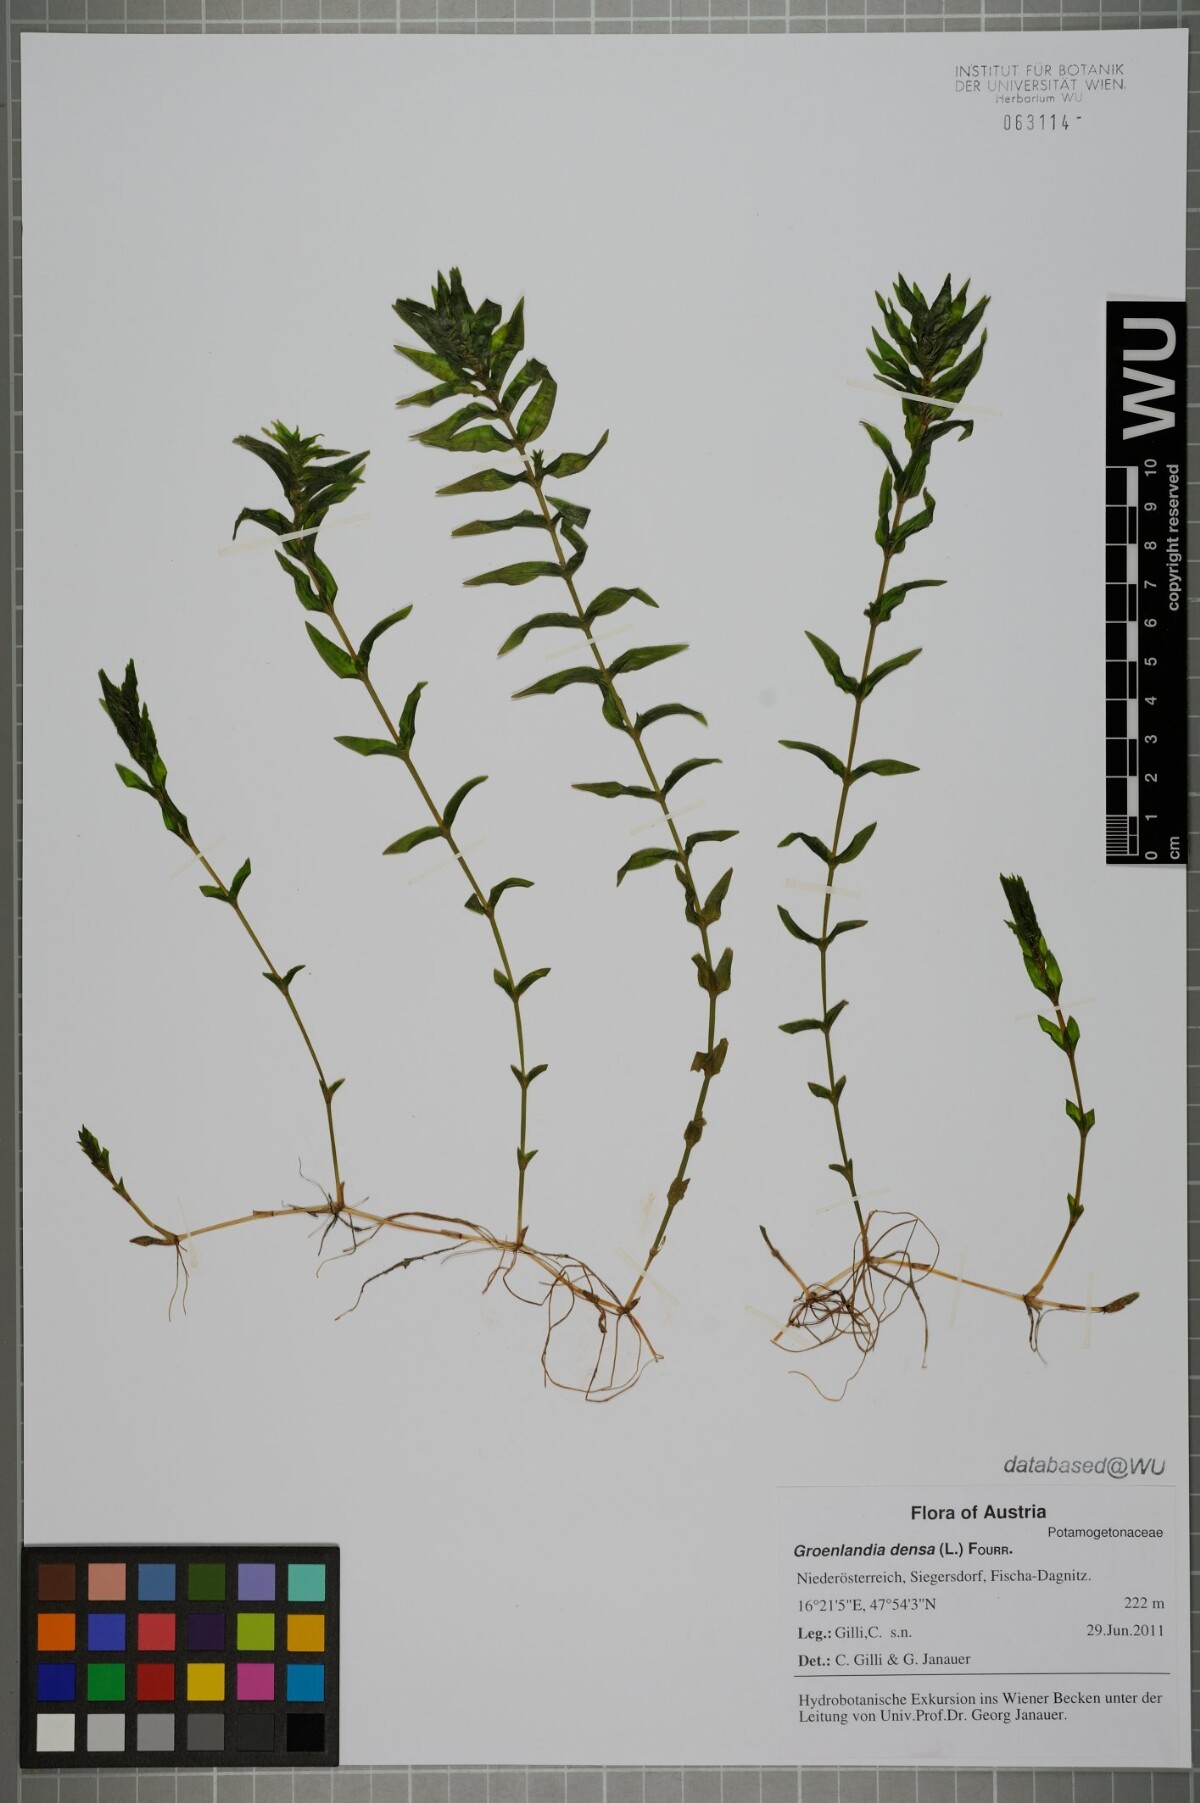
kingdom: Plantae
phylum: Tracheophyta
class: Liliopsida
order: Alismatales
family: Potamogetonaceae
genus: Groenlandia
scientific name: Groenlandia densa
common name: Opposite-leaved pondweed
